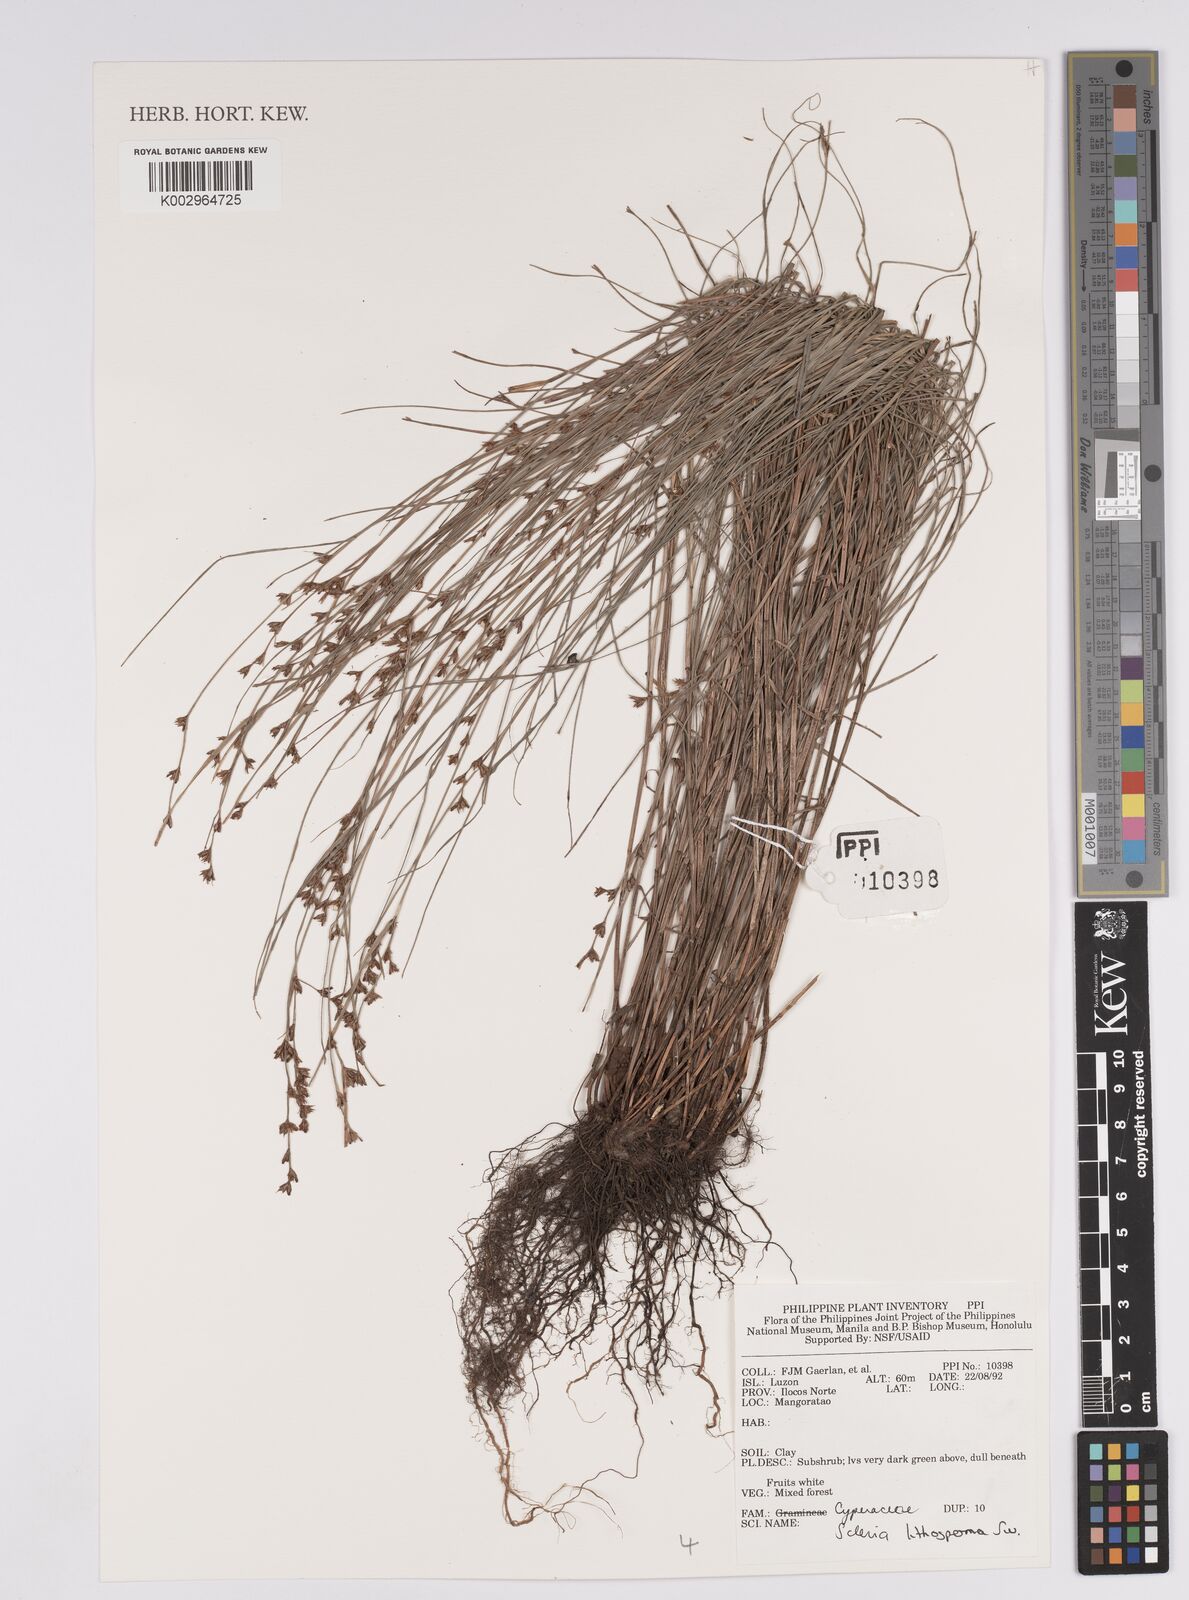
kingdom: Plantae
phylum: Tracheophyta
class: Liliopsida
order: Poales
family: Cyperaceae
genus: Scleria
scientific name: Scleria lithosperma
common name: Florida keys nut-rush
